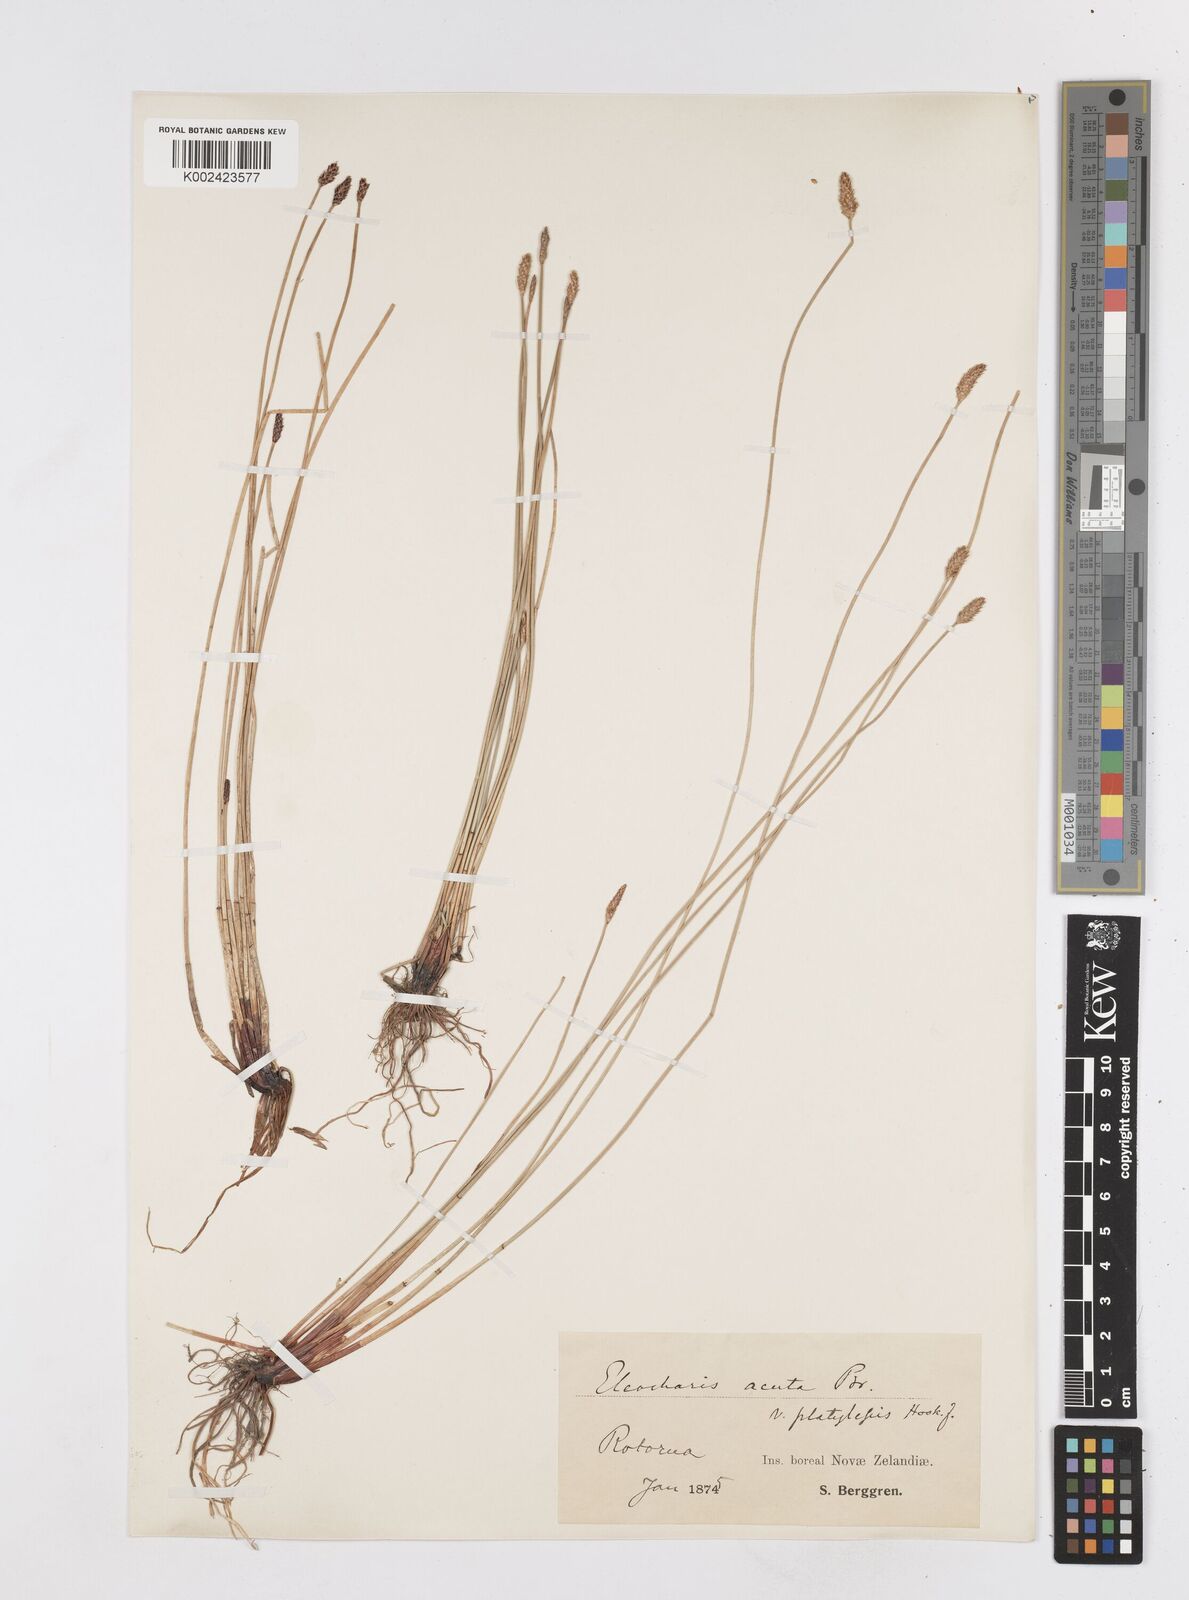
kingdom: Plantae
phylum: Tracheophyta
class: Liliopsida
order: Poales
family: Cyperaceae
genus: Eleocharis
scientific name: Eleocharis acuta
